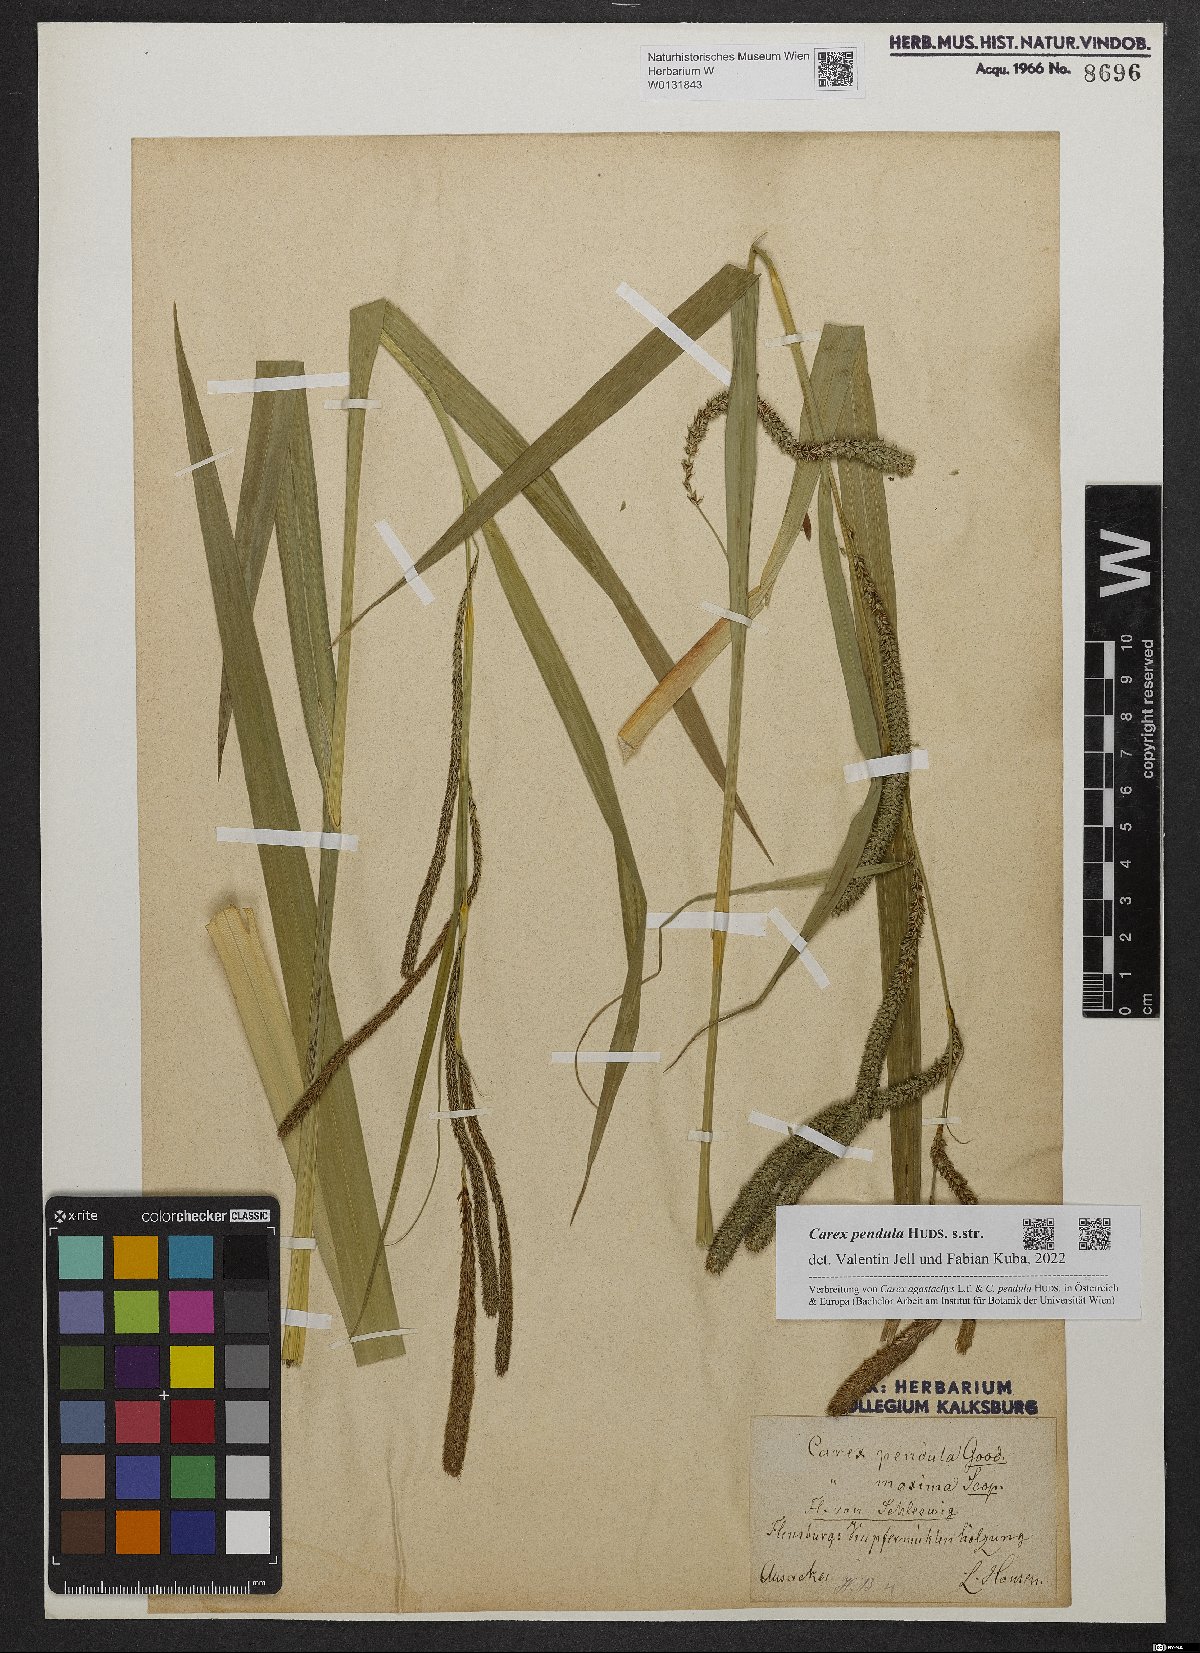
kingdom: Plantae
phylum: Tracheophyta
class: Liliopsida
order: Poales
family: Cyperaceae
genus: Carex
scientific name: Carex pendula
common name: Pendulous sedge
